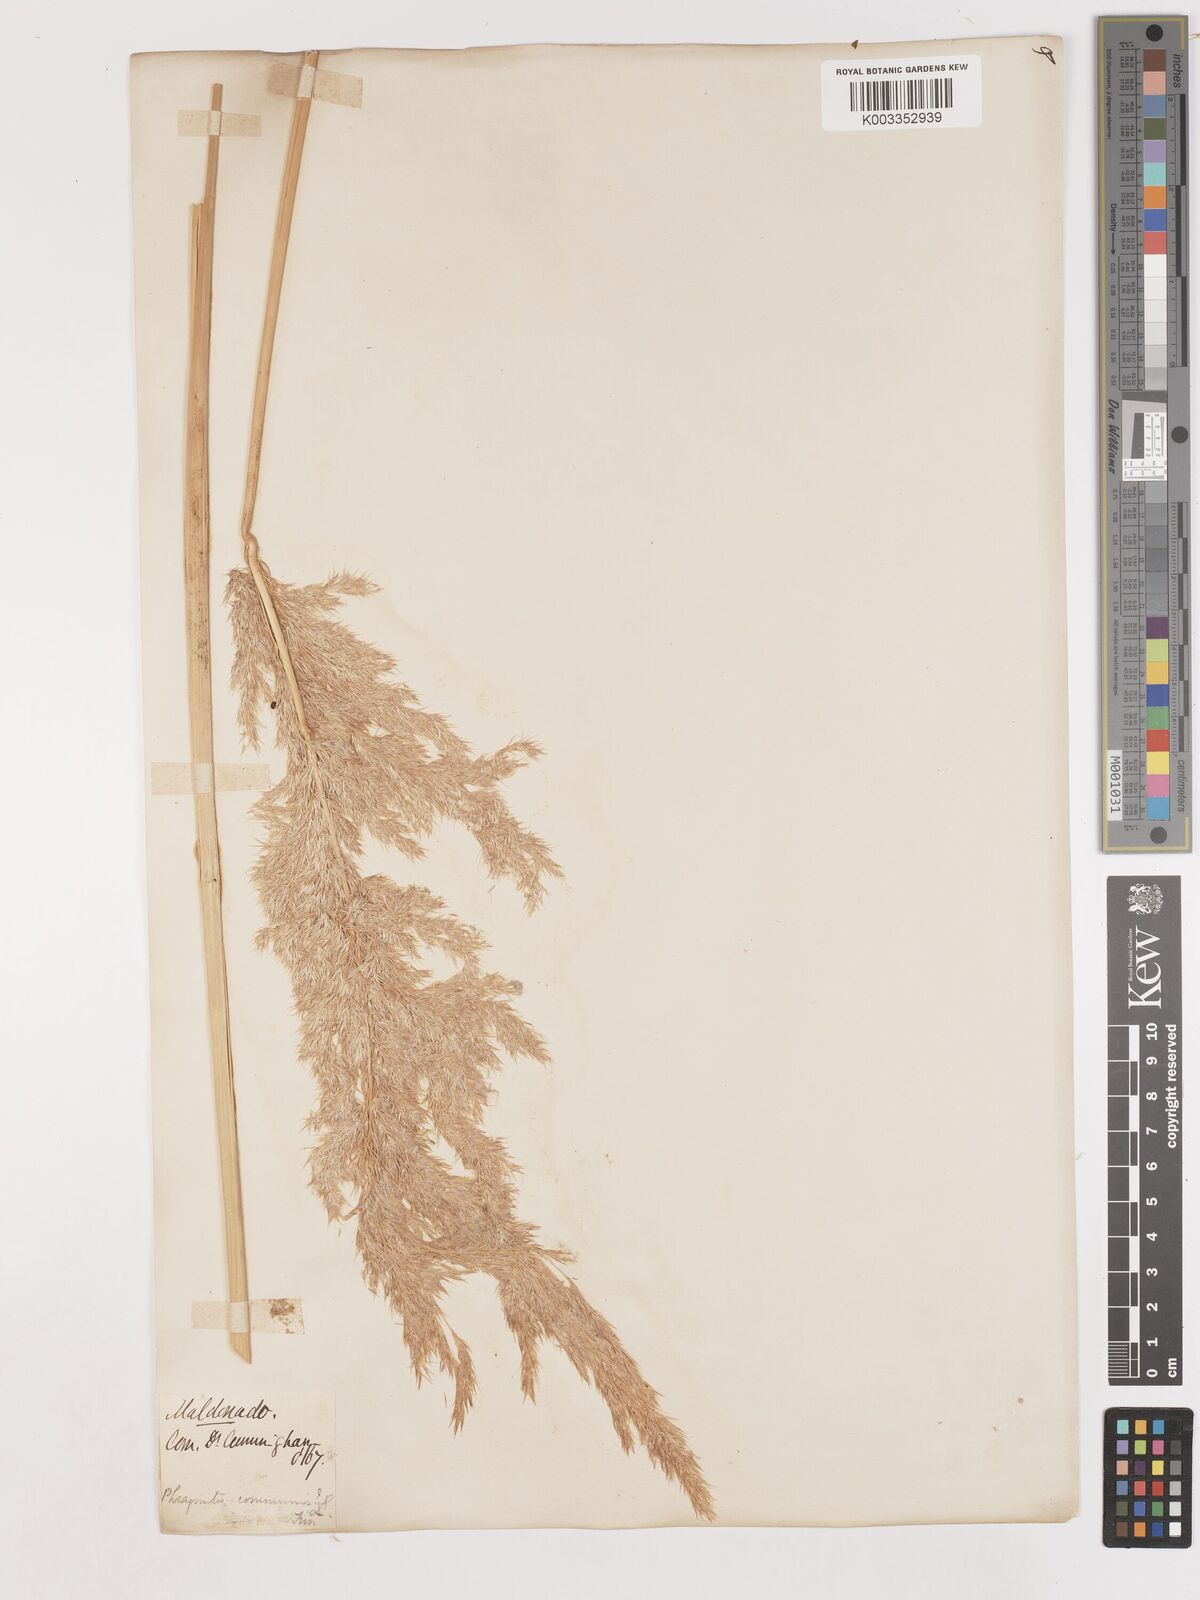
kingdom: Plantae
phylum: Tracheophyta
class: Liliopsida
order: Poales
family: Poaceae
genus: Cinnagrostis
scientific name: Cinnagrostis viridiflavescens
